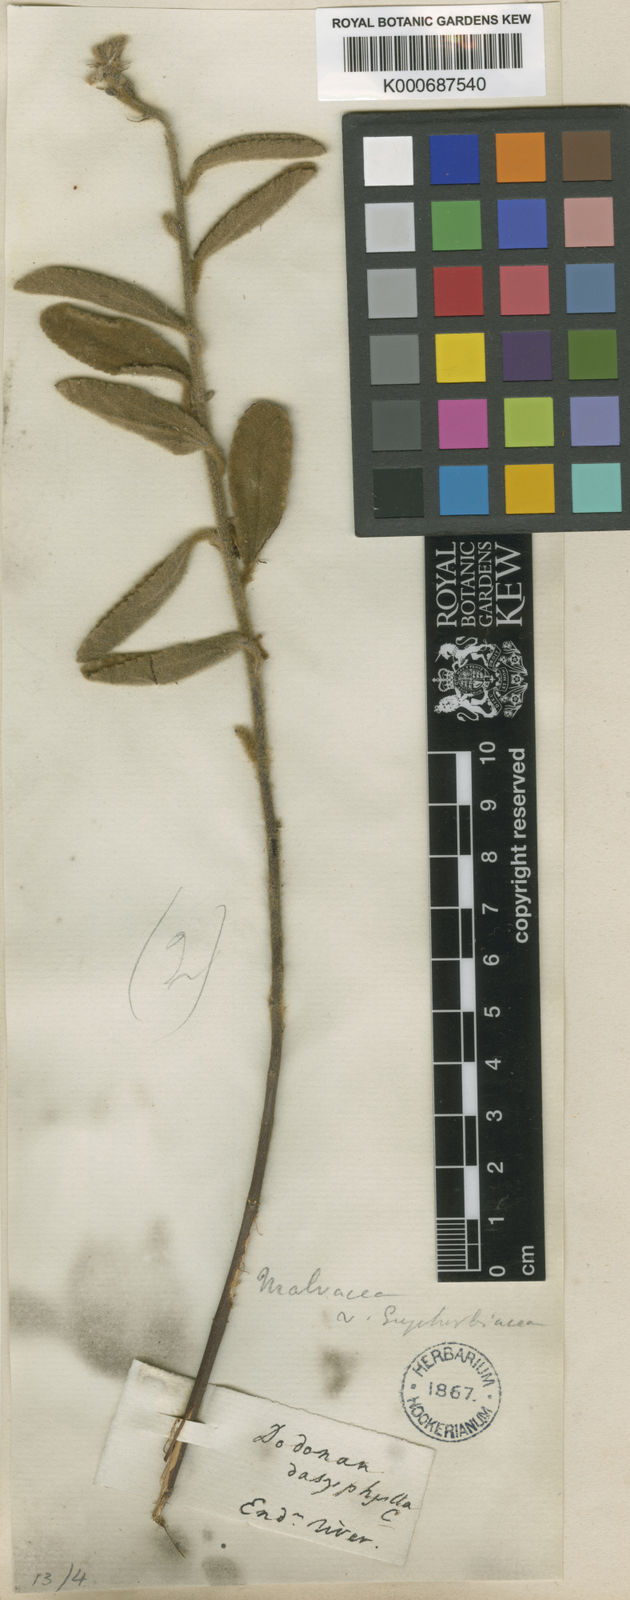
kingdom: Plantae
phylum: Tracheophyta
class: Magnoliopsida
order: Malvales
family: Malvaceae
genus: Triumfetta
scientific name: Triumfetta plumigera
